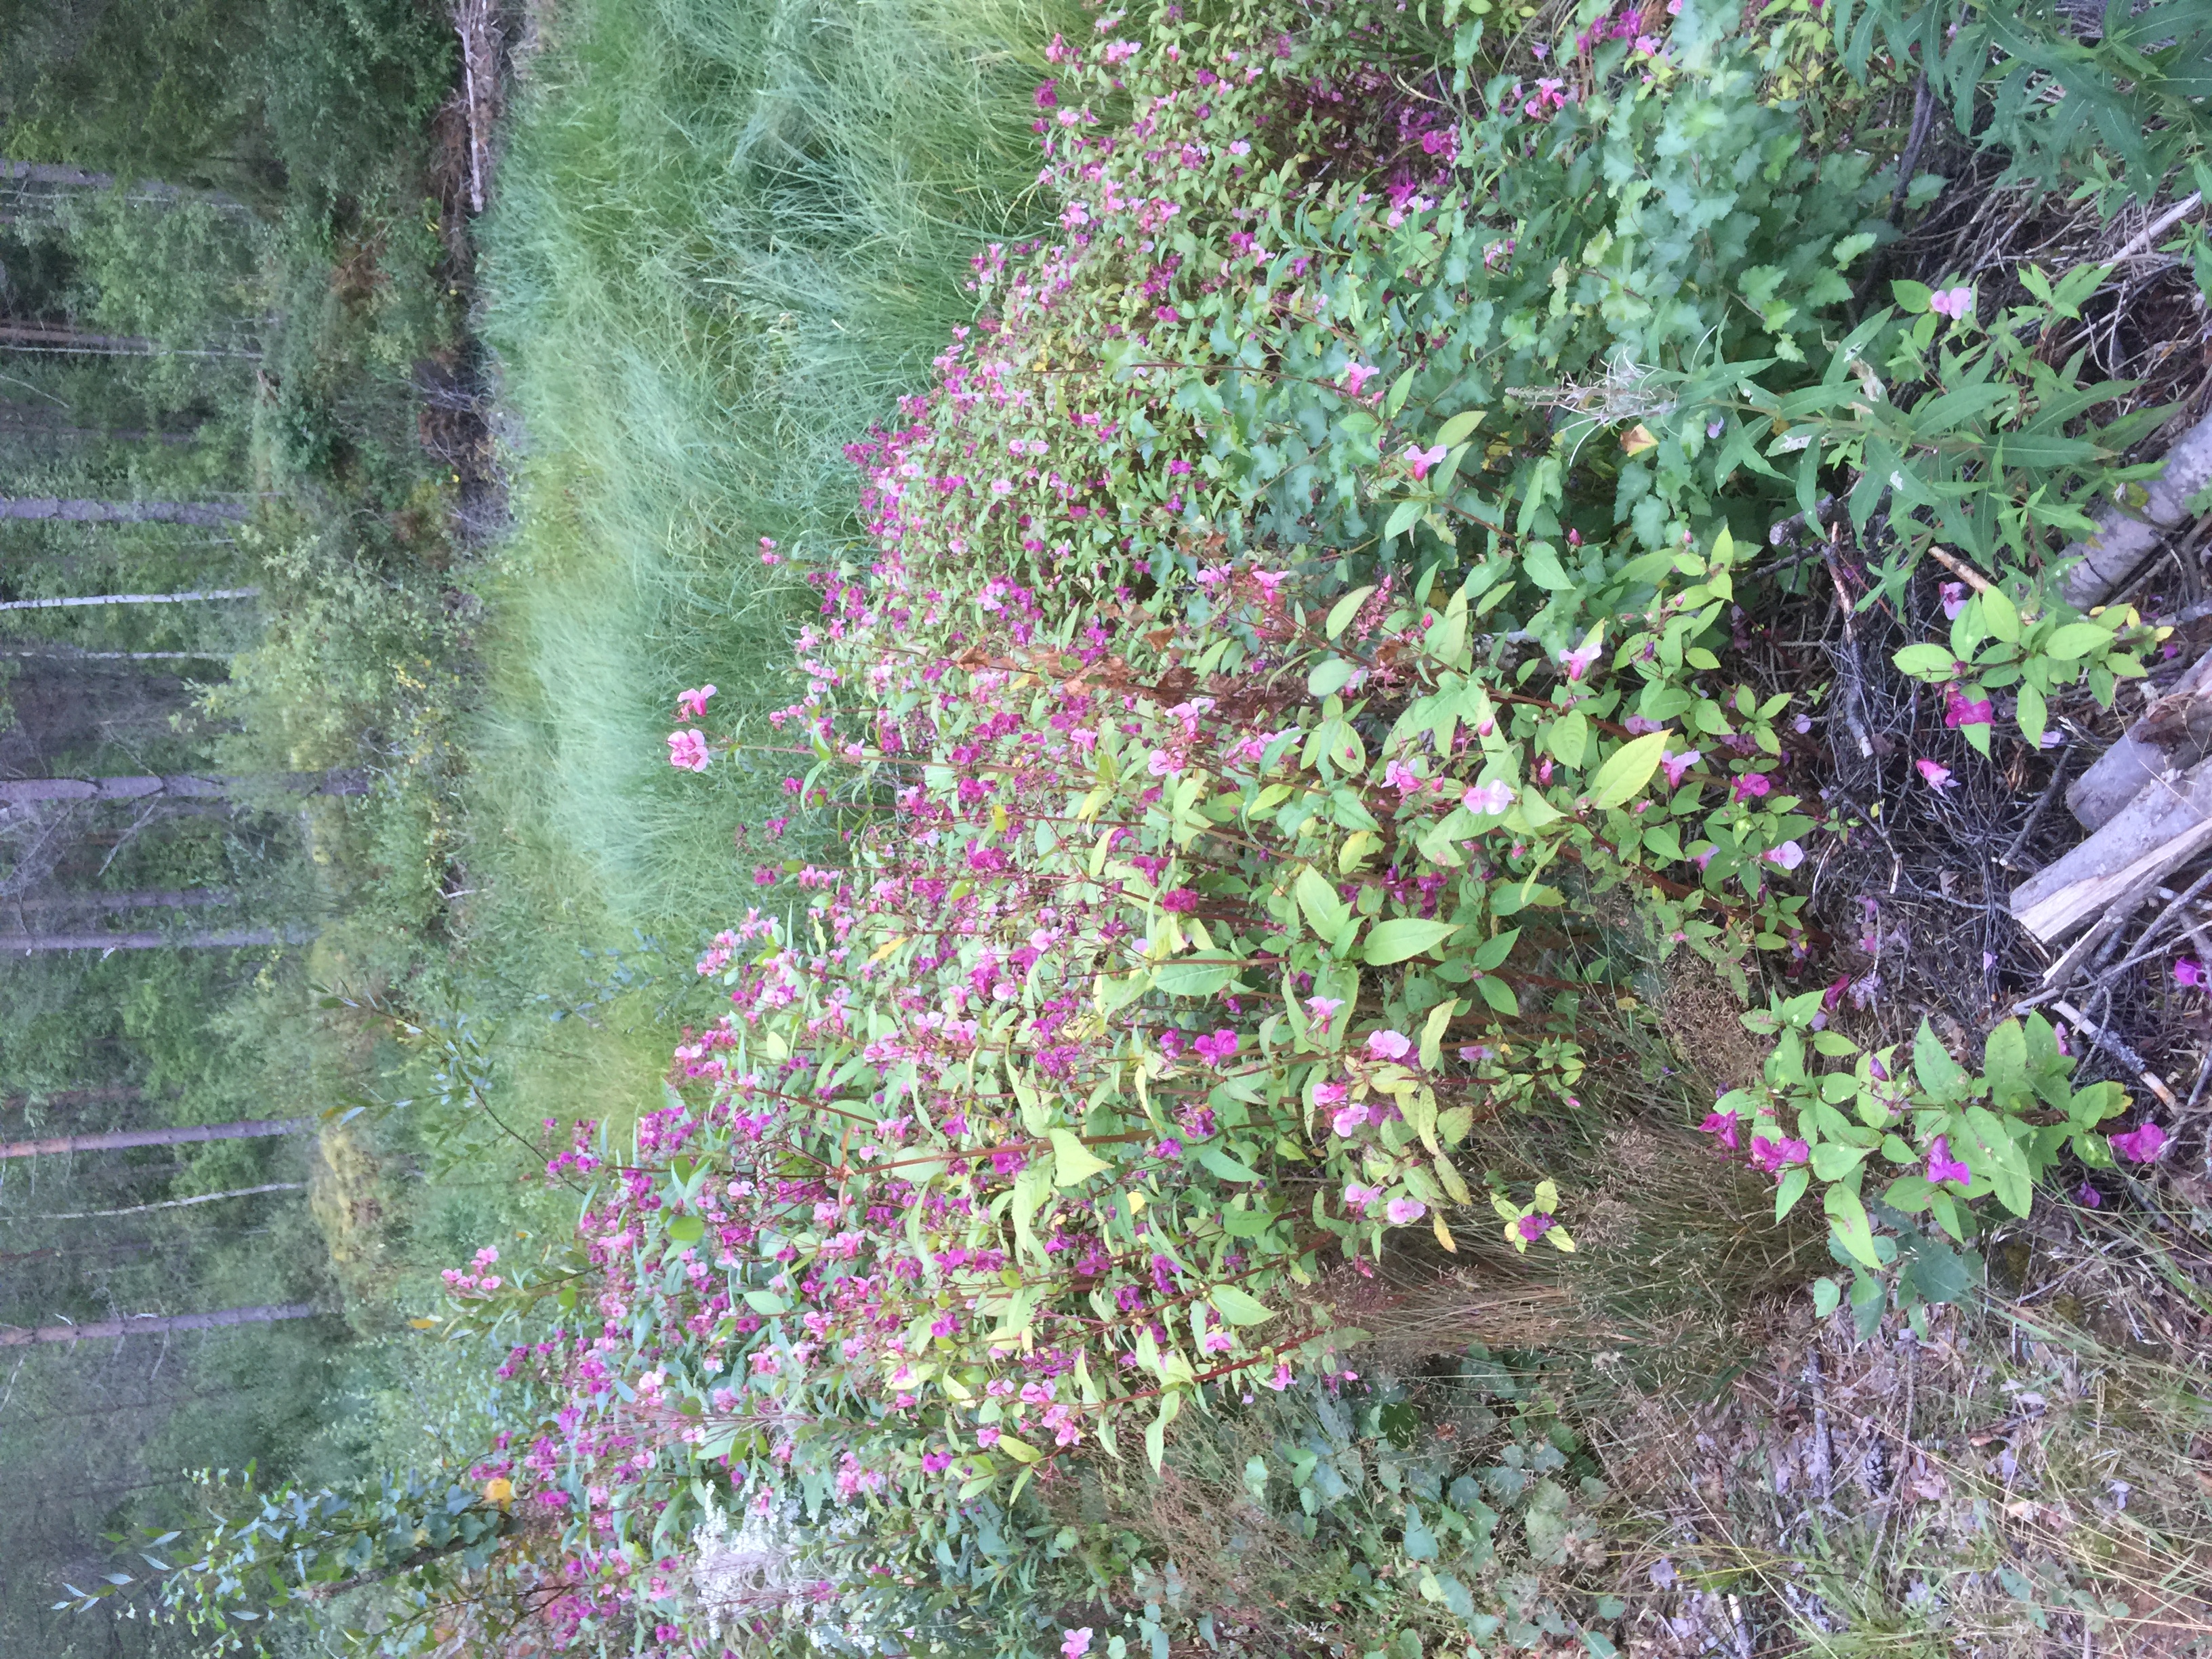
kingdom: Plantae
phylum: Tracheophyta
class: Magnoliopsida
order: Ericales
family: Balsaminaceae
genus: Impatiens
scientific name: Impatiens glandulifera
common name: Himalayan balsam
